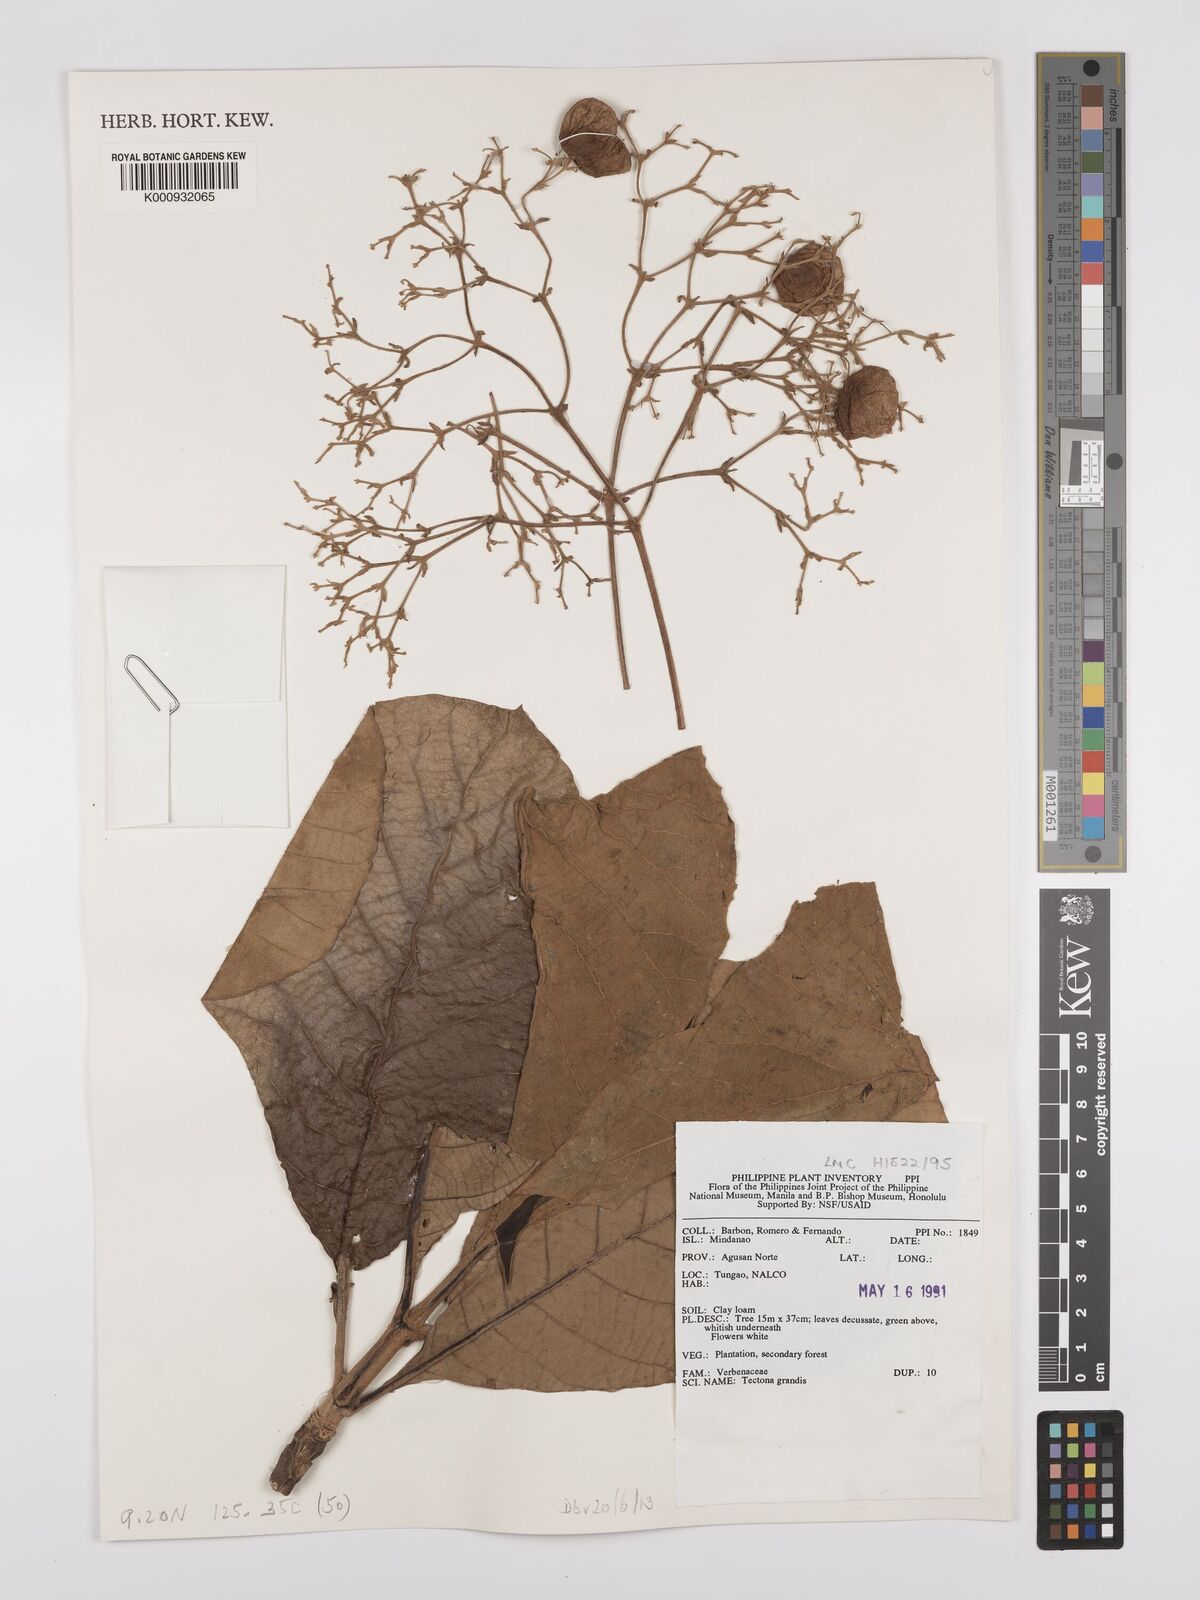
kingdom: Plantae
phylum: Tracheophyta
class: Magnoliopsida
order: Lamiales
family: Lamiaceae
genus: Tectona
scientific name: Tectona grandis
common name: Teak
